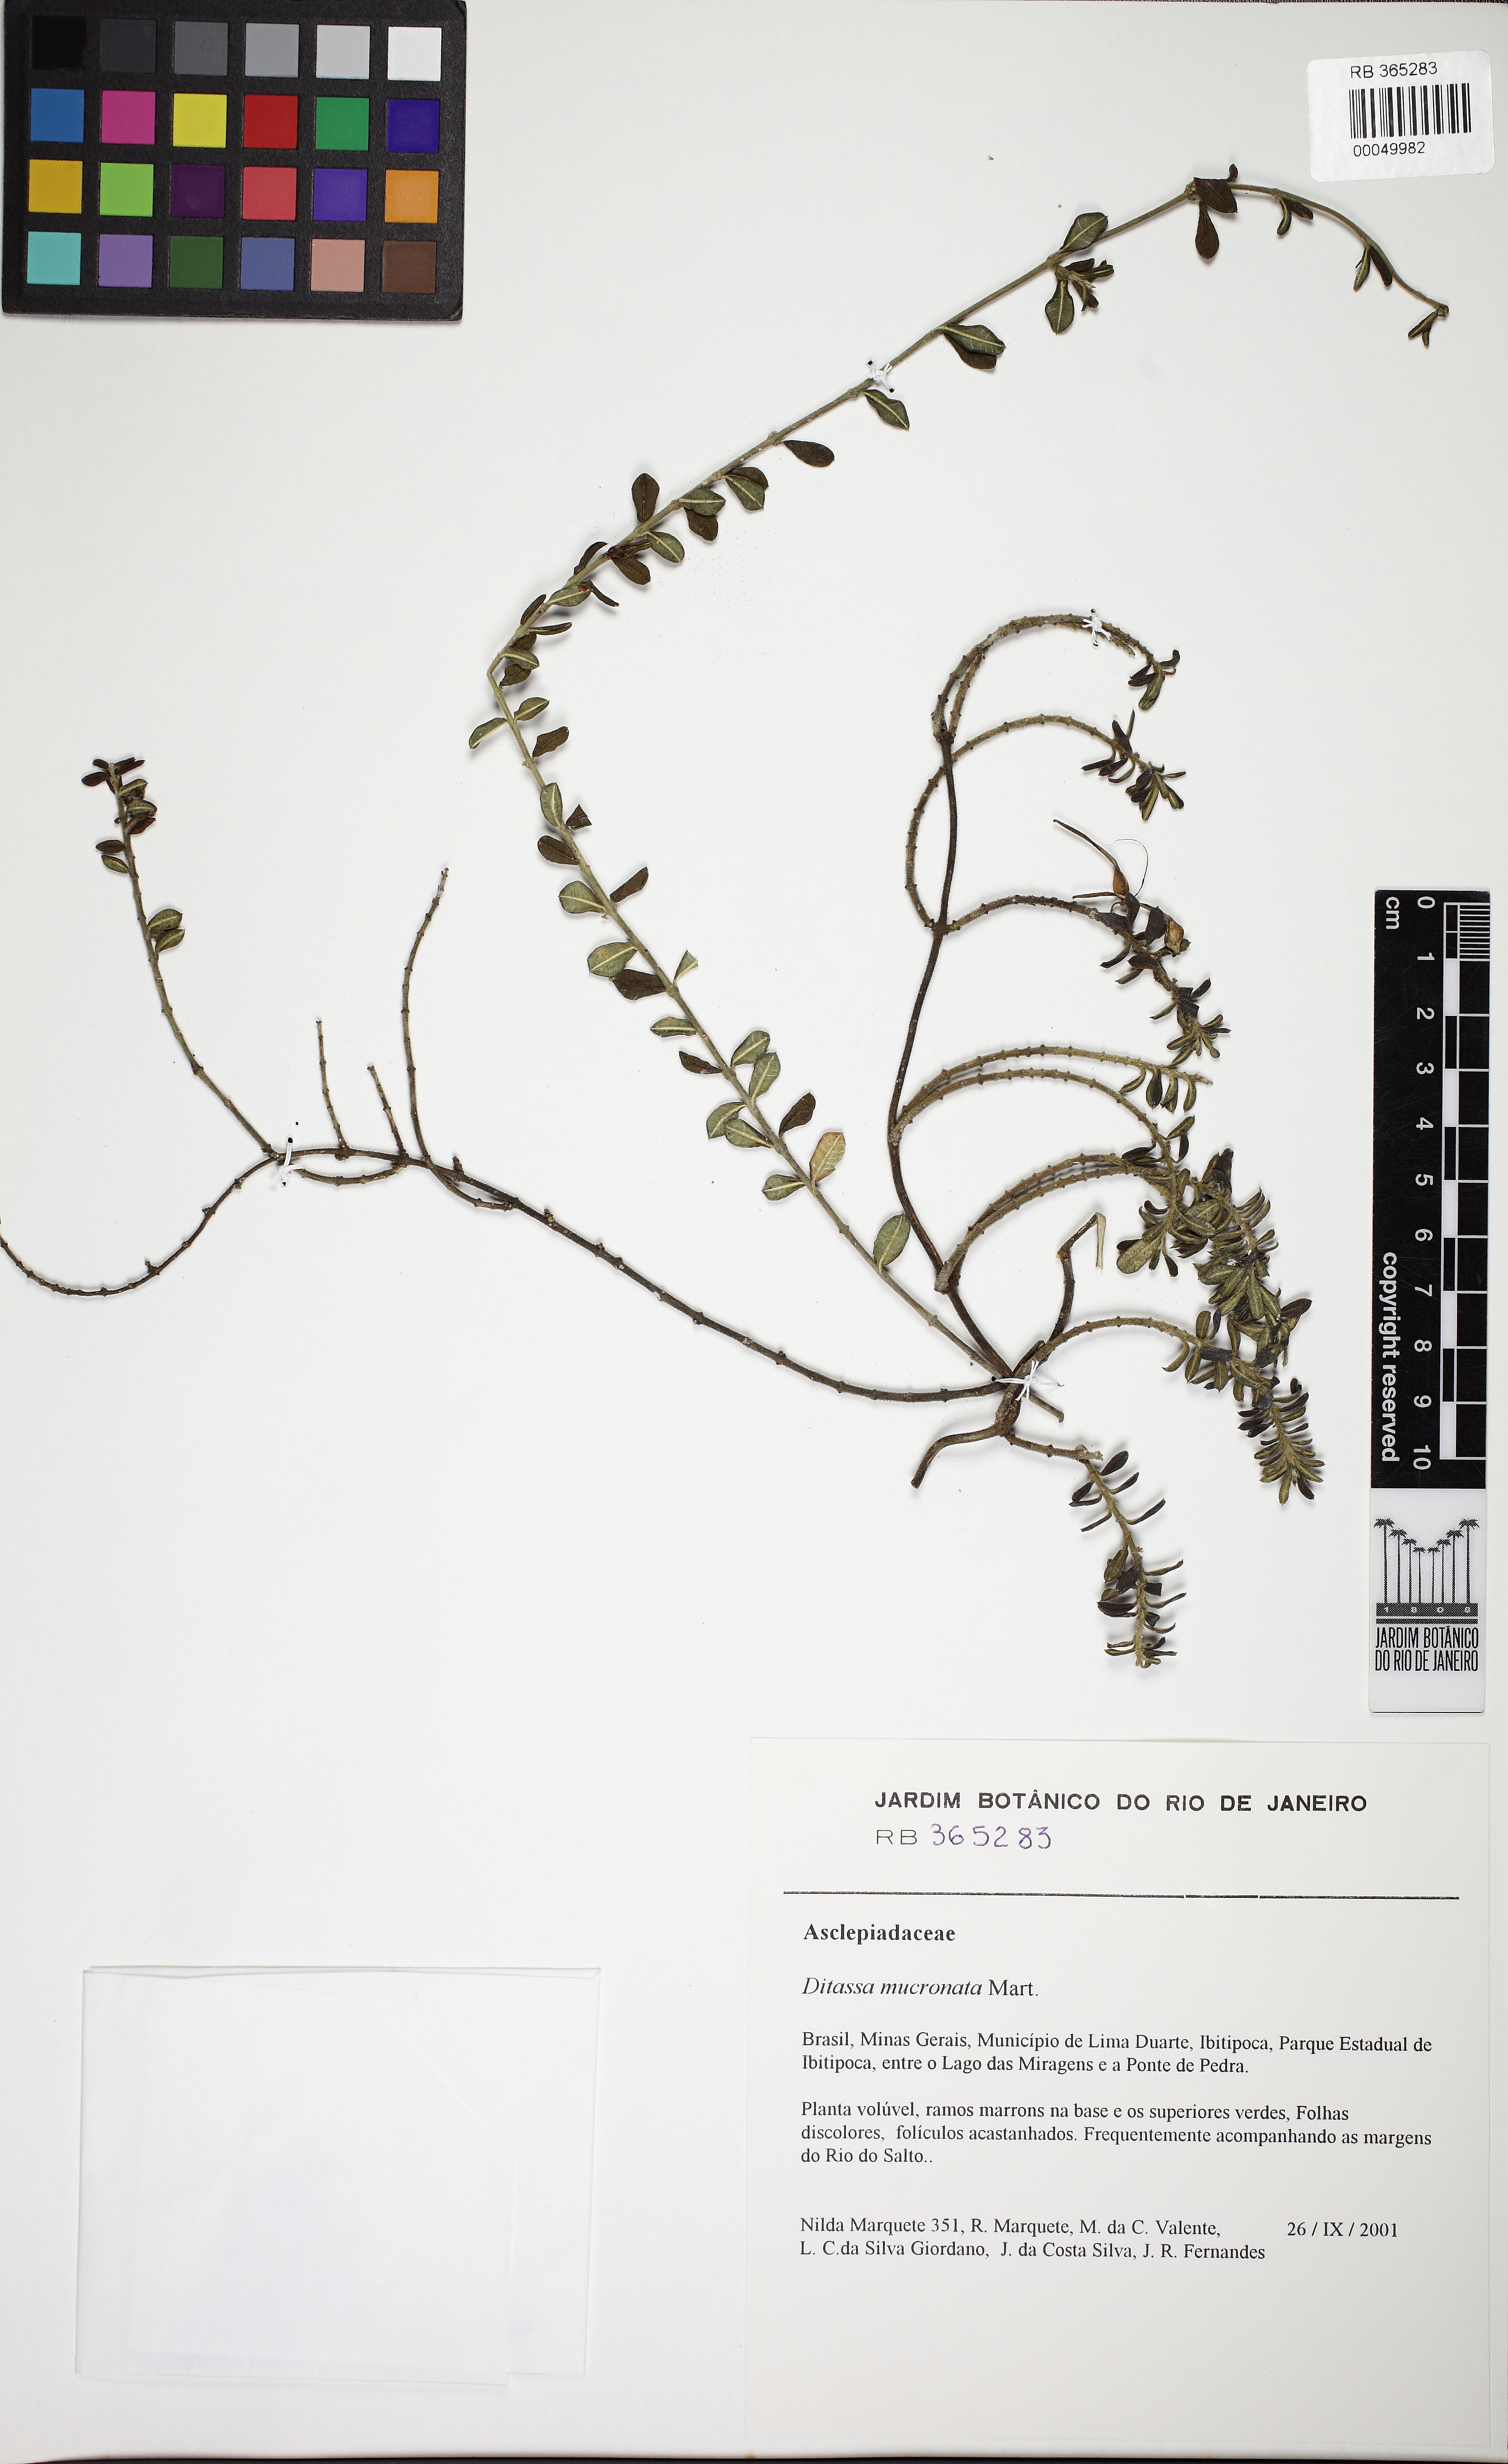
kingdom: Plantae
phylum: Tracheophyta
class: Magnoliopsida
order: Gentianales
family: Apocynaceae
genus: Ditassa
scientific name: Ditassa mucronata
